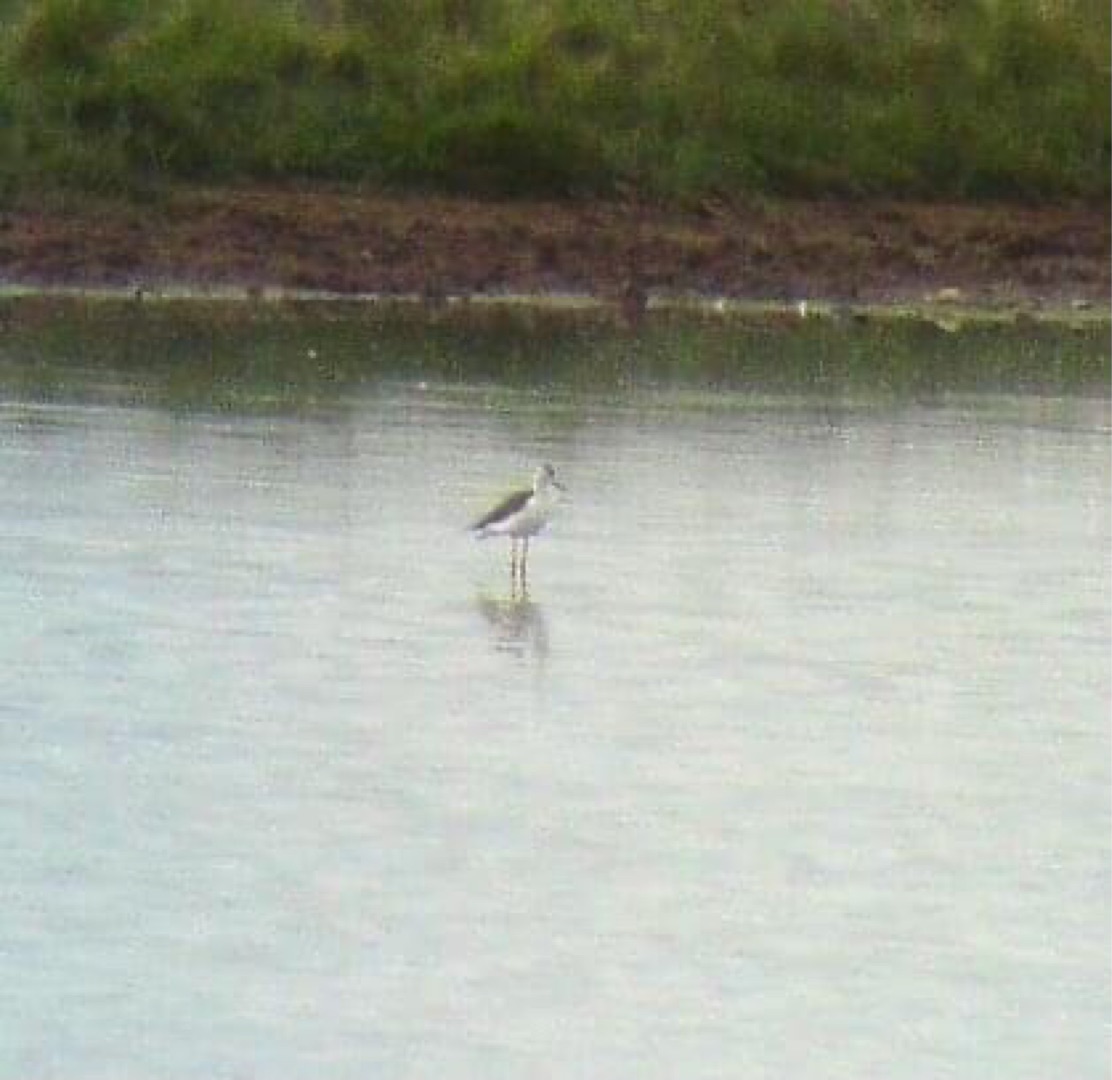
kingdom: Animalia
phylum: Chordata
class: Aves
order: Charadriiformes
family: Recurvirostridae
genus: Himantopus
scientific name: Himantopus himantopus
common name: Stylteløber
